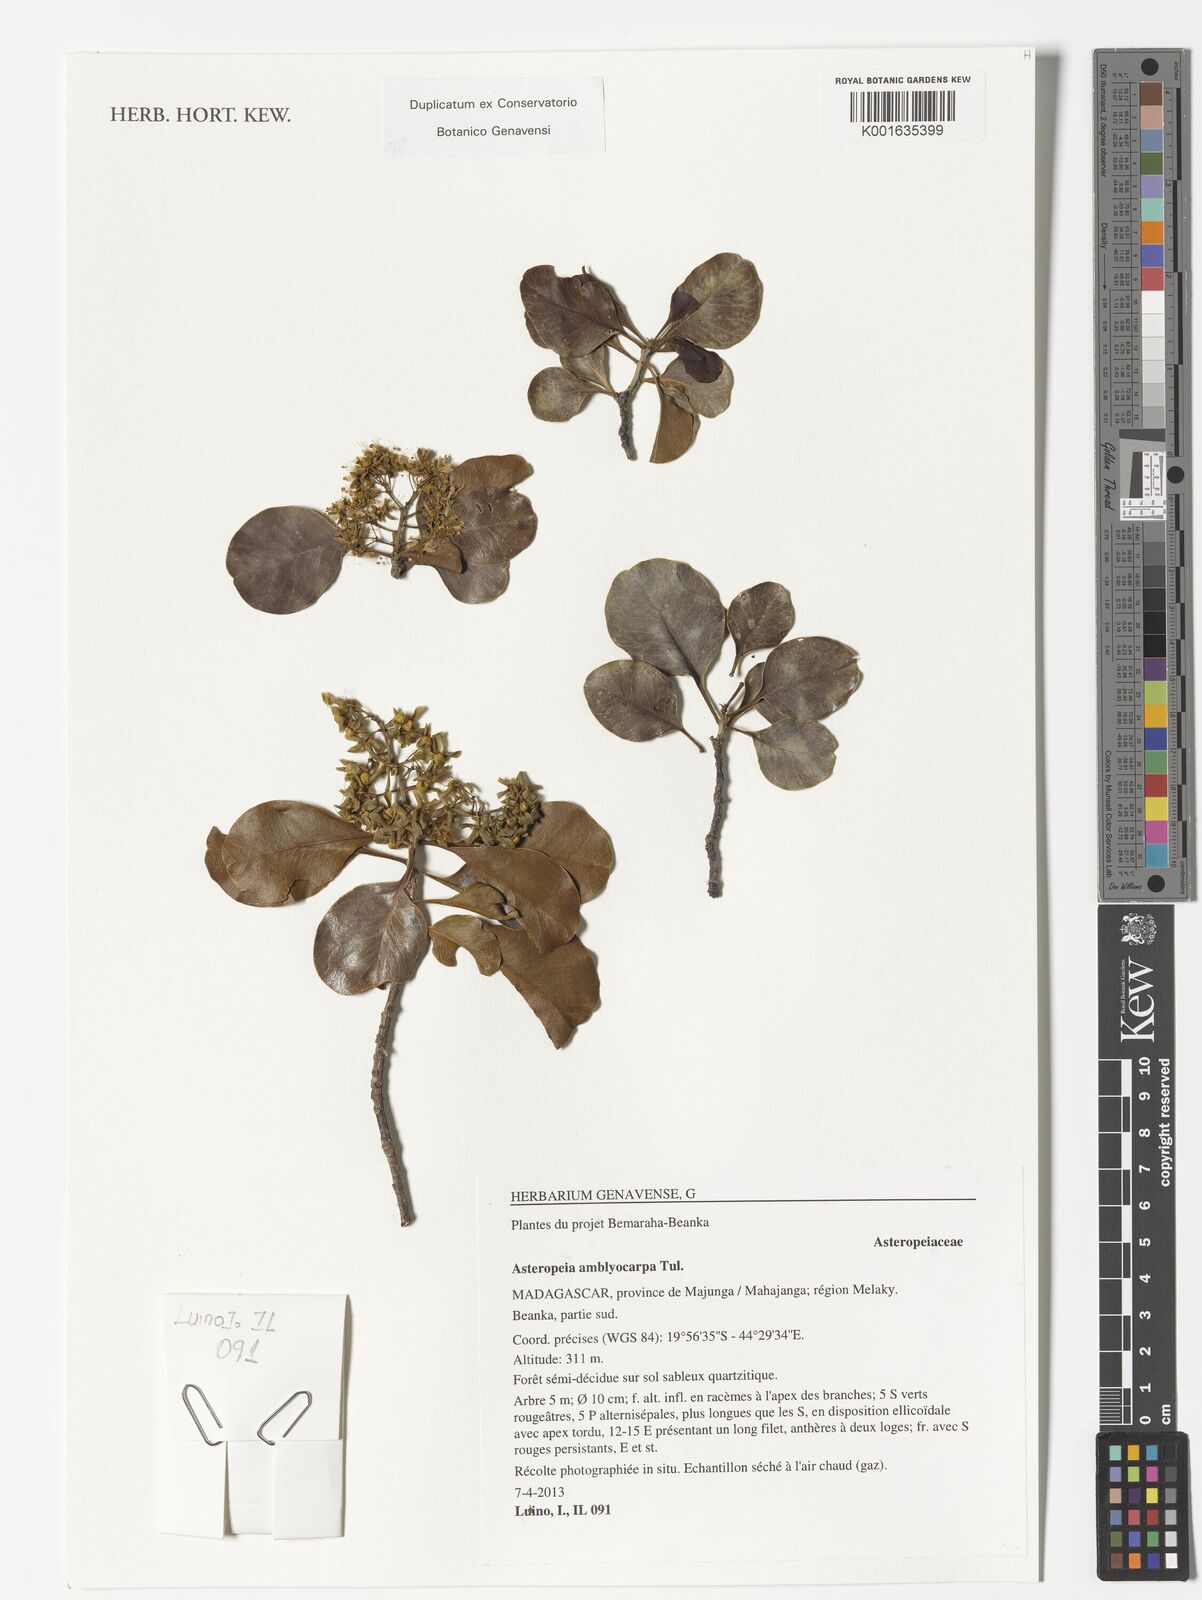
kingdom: Plantae
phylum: Tracheophyta
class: Magnoliopsida
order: Caryophyllales
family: Asteropeiaceae
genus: Asteropeia
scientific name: Asteropeia amblyocarpa
